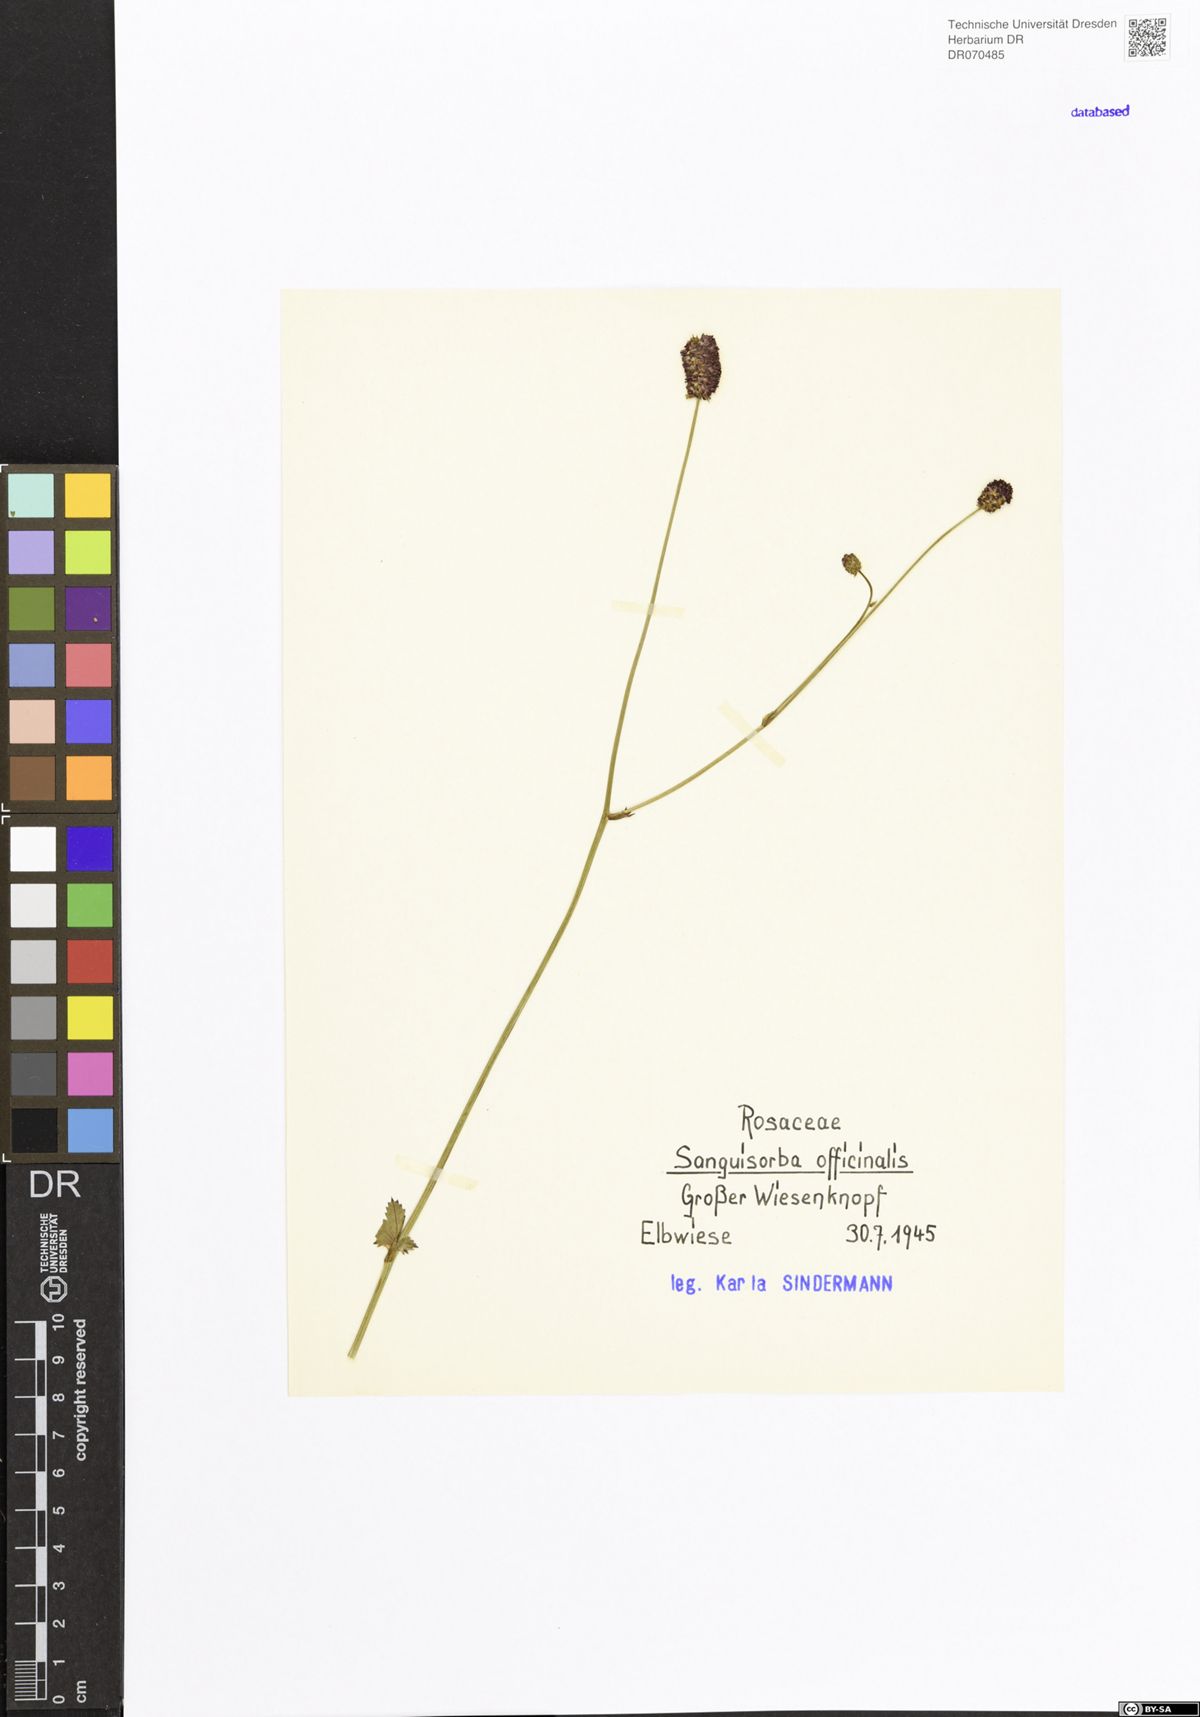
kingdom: Plantae
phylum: Tracheophyta
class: Magnoliopsida
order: Rosales
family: Rosaceae
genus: Sanguisorba
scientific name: Sanguisorba officinalis
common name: Great burnet
